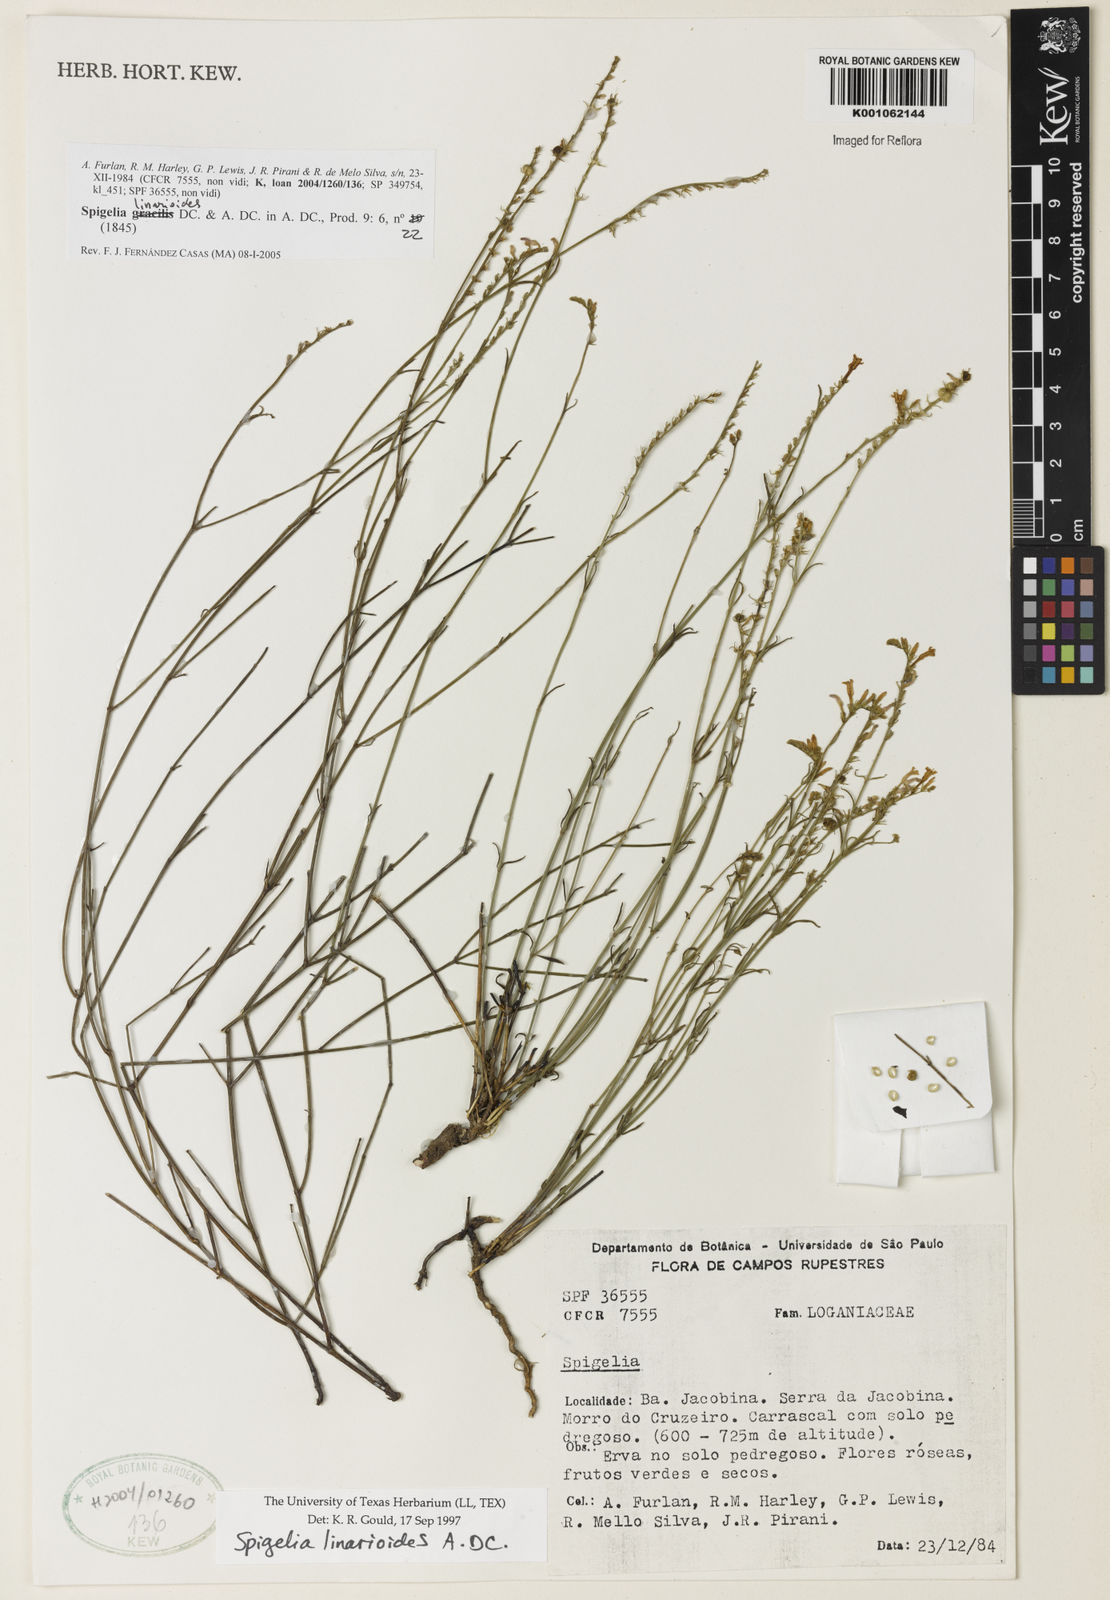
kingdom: Plantae
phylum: Tracheophyta
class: Magnoliopsida
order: Gentianales
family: Loganiaceae
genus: Spigelia
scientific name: Spigelia linarioides
